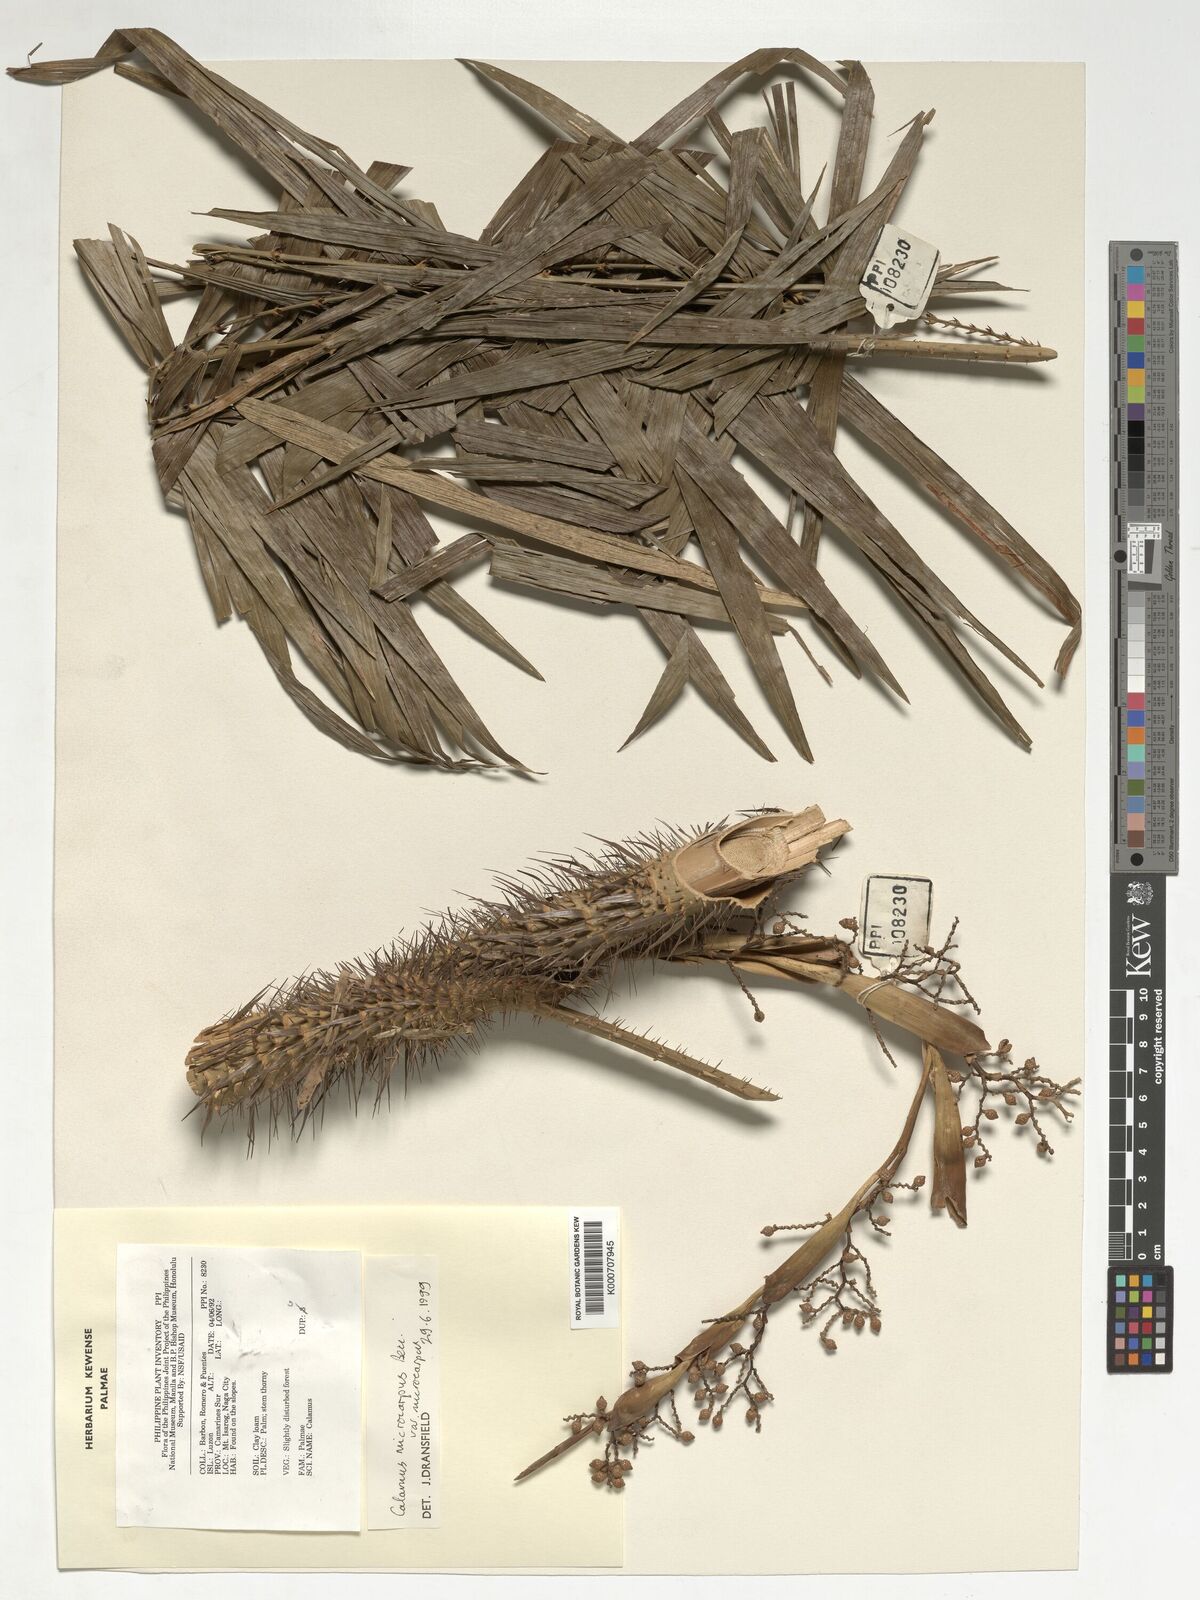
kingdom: Plantae
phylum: Tracheophyta
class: Liliopsida
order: Arecales
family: Arecaceae
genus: Calamus
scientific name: Calamus siphonospathus
